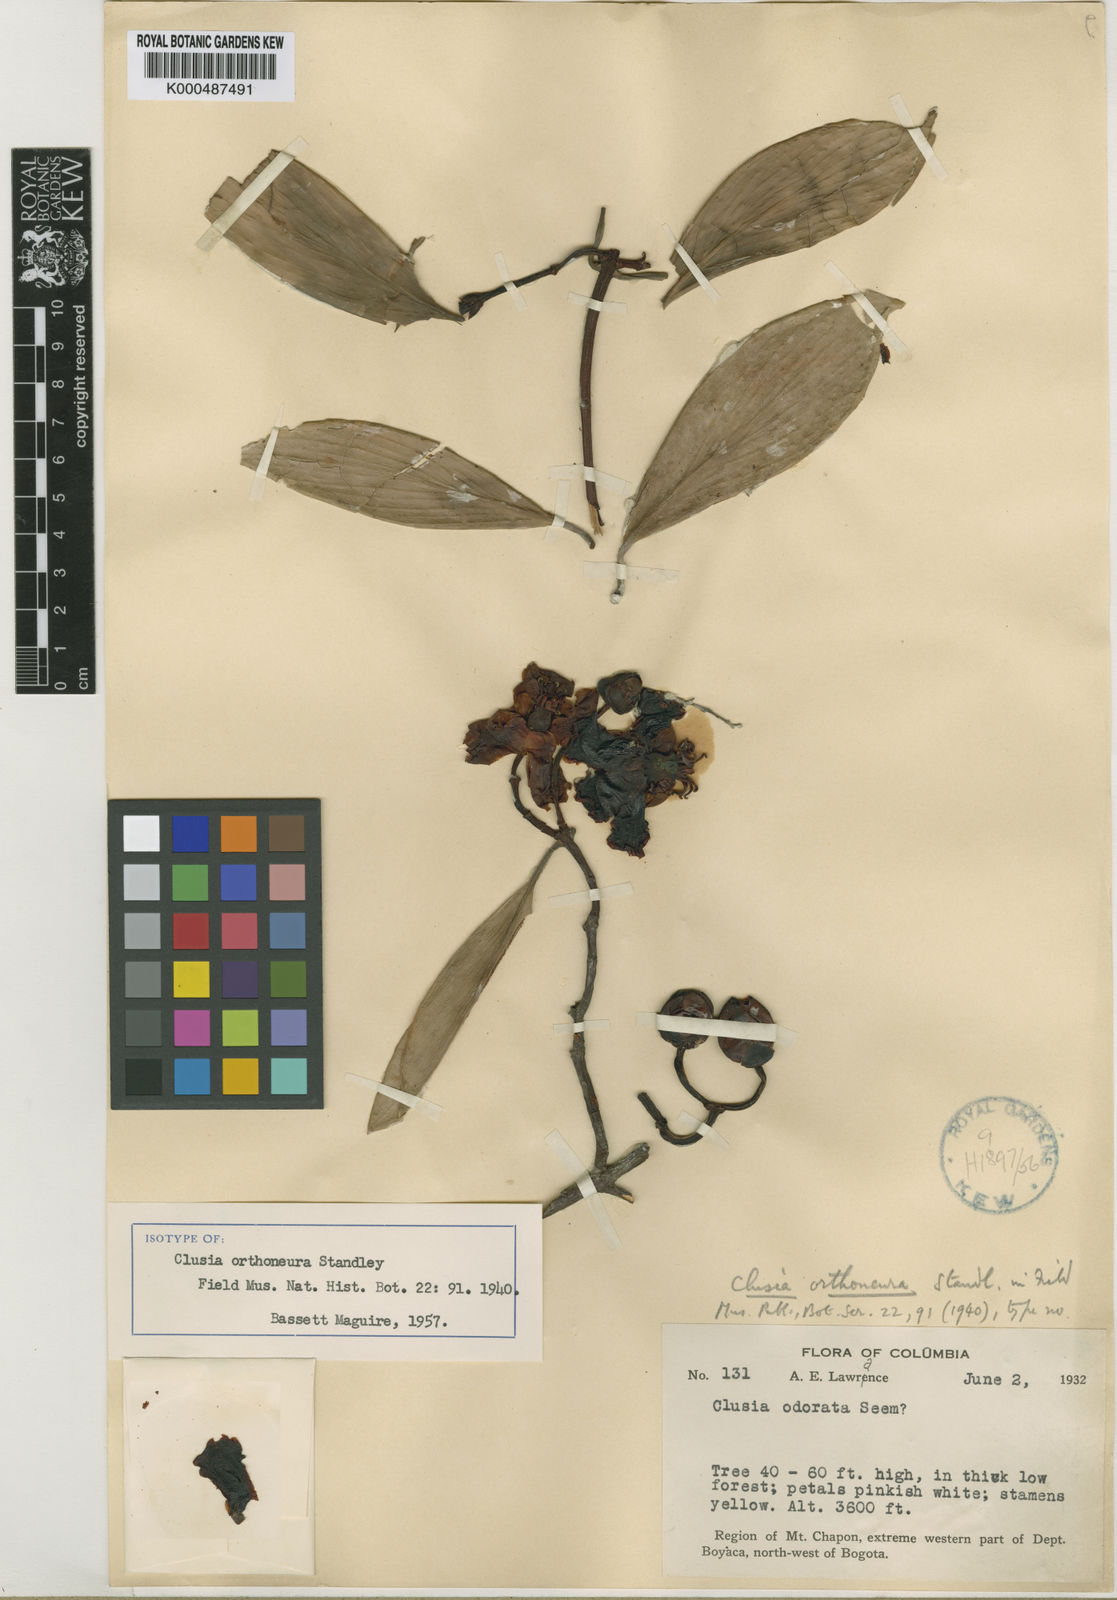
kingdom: Plantae
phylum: Tracheophyta
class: Magnoliopsida
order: Malpighiales
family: Clusiaceae
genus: Clusia
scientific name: Clusia orthoneura
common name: Porcelain-flower
